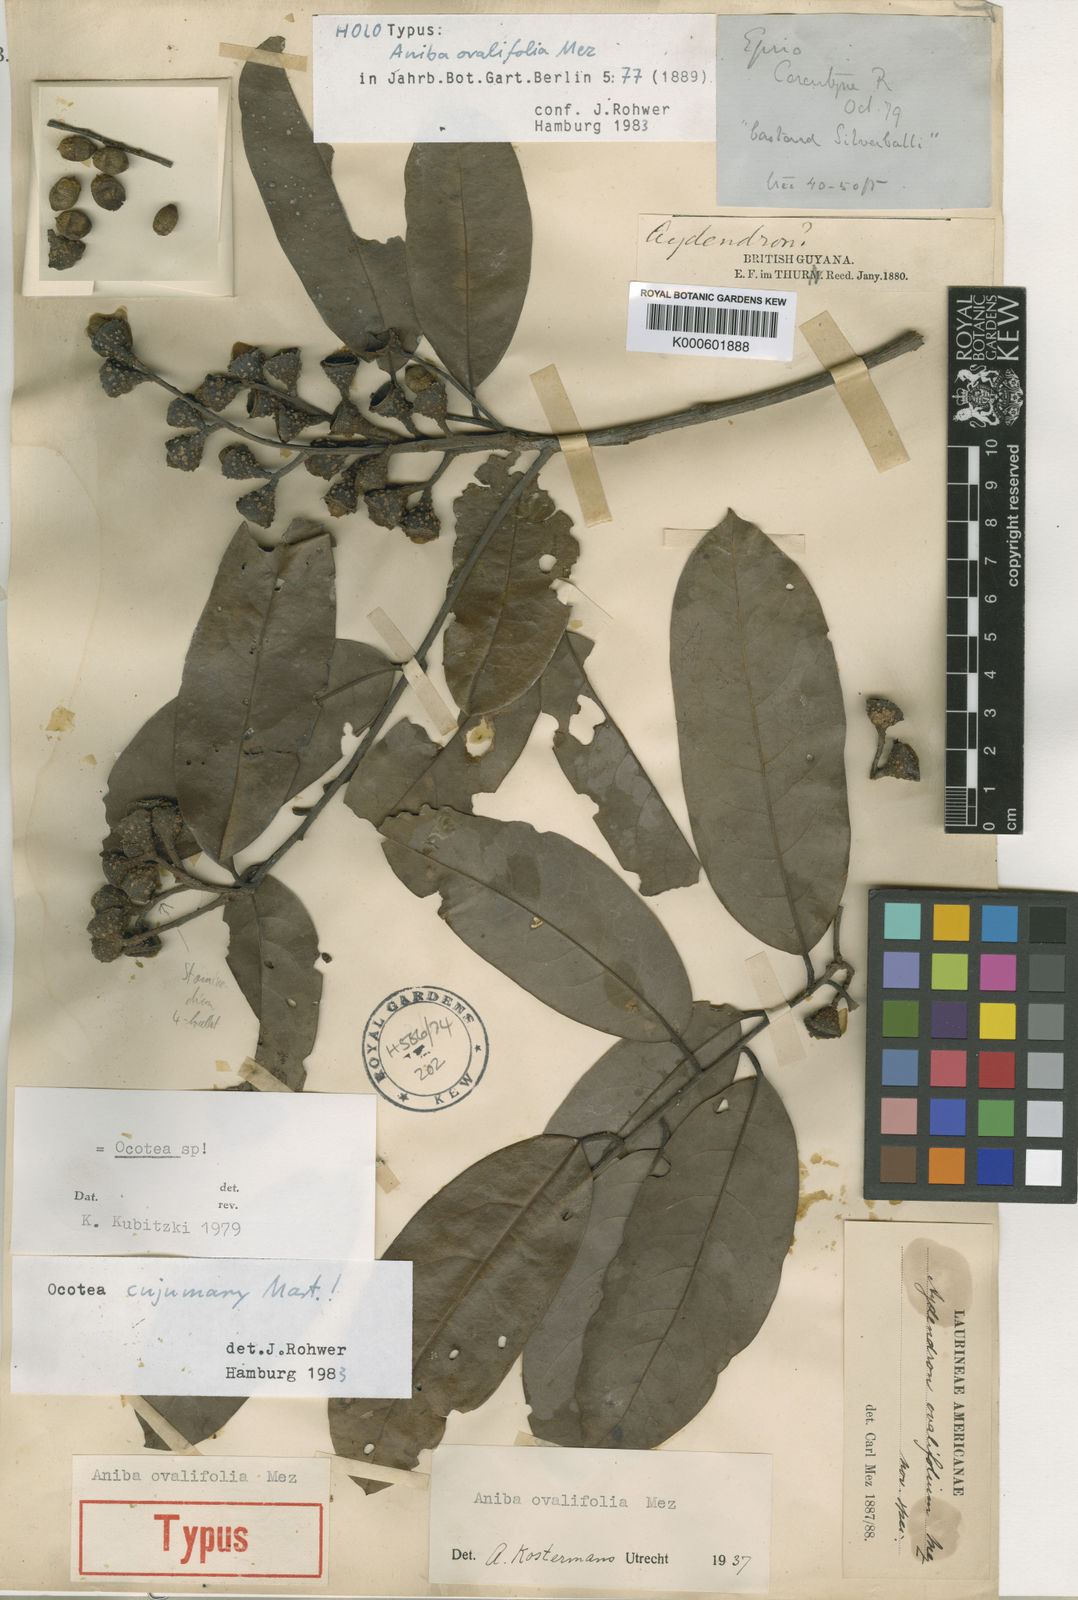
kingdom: Plantae
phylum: Tracheophyta
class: Magnoliopsida
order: Laurales
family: Lauraceae
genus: Aniba
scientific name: Aniba hypoglauca
